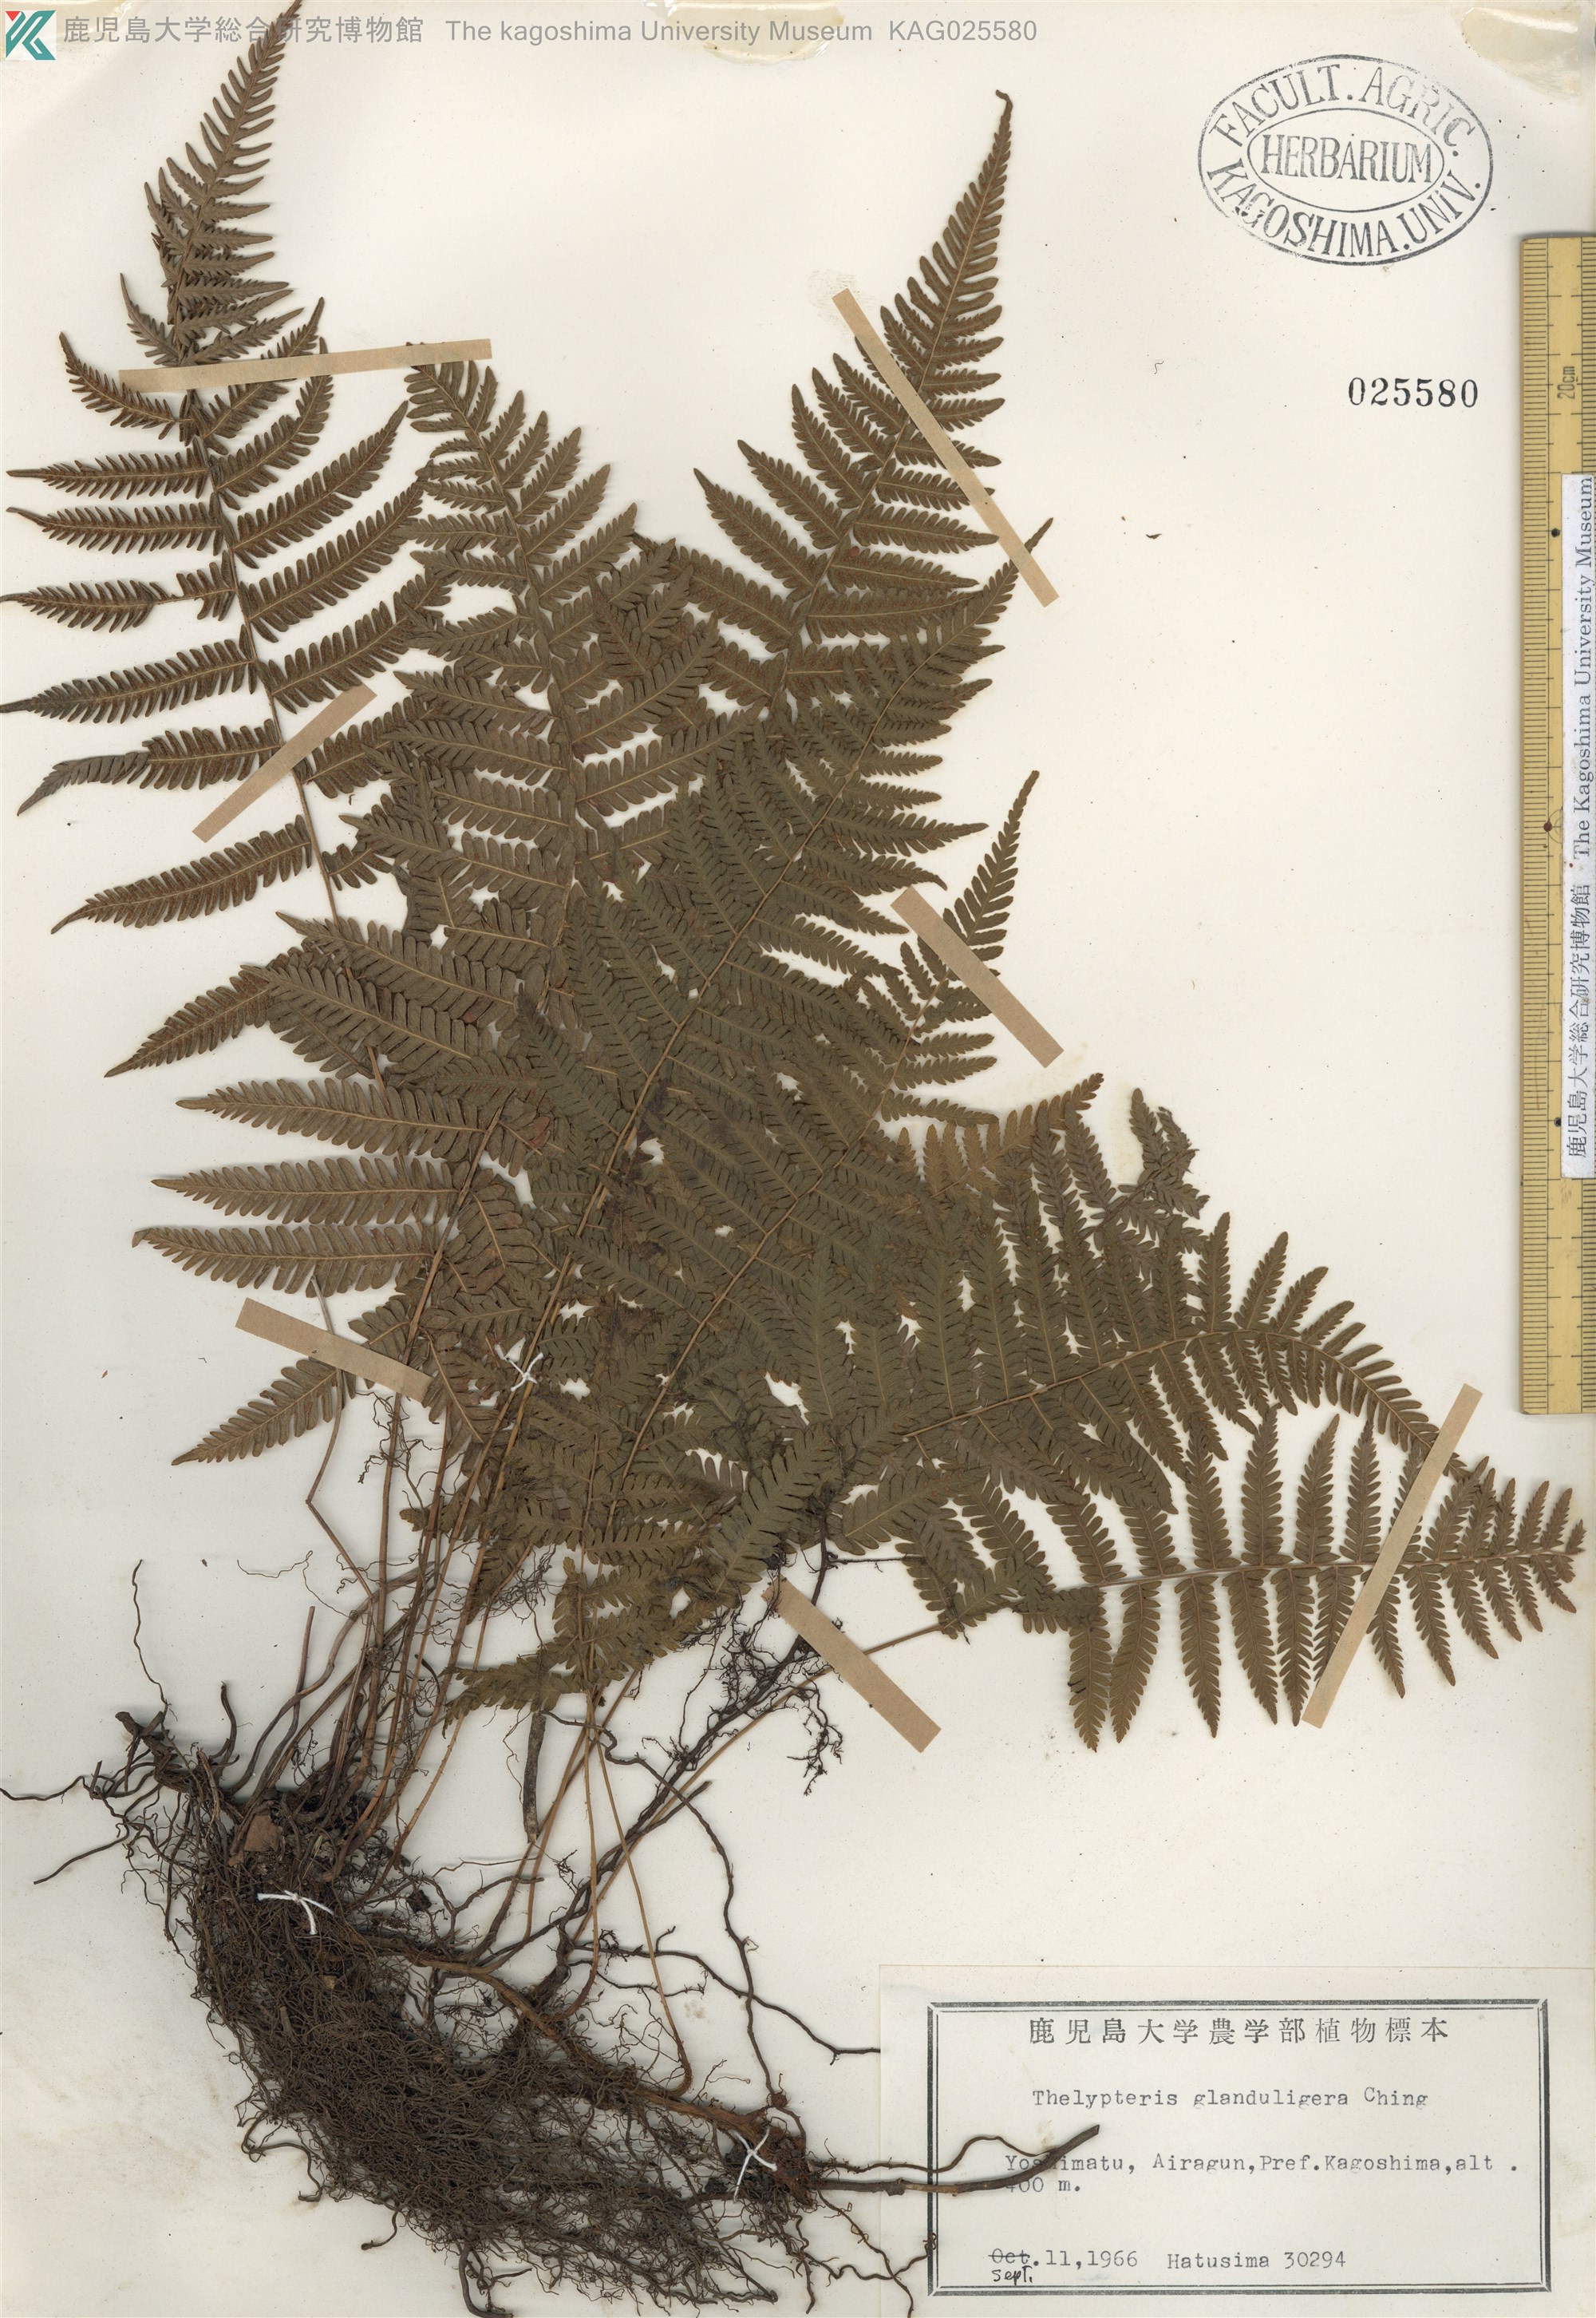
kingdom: Plantae
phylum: Tracheophyta
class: Polypodiopsida
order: Polypodiales
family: Thelypteridaceae
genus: Amauropelta
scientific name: Amauropelta glanduligera
